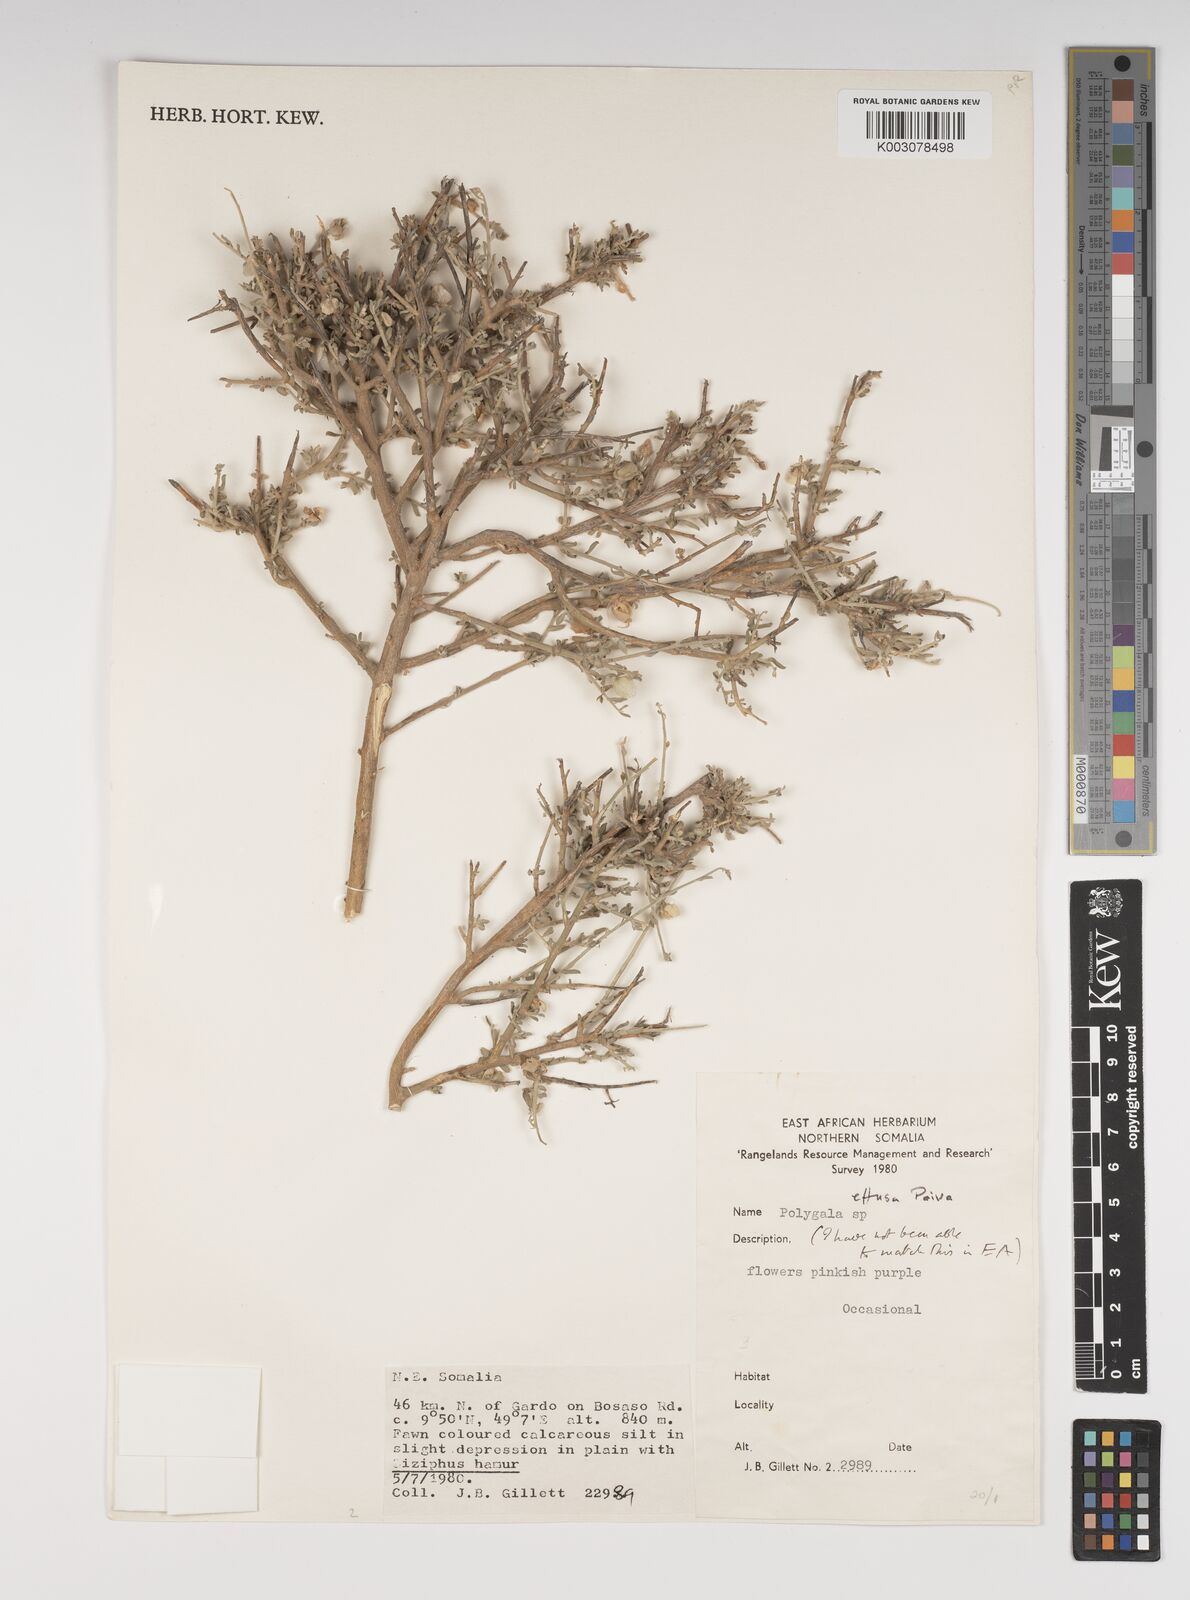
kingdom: Plantae
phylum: Tracheophyta
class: Magnoliopsida
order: Fabales
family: Polygalaceae
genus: Polygala
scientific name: Polygala effusa
